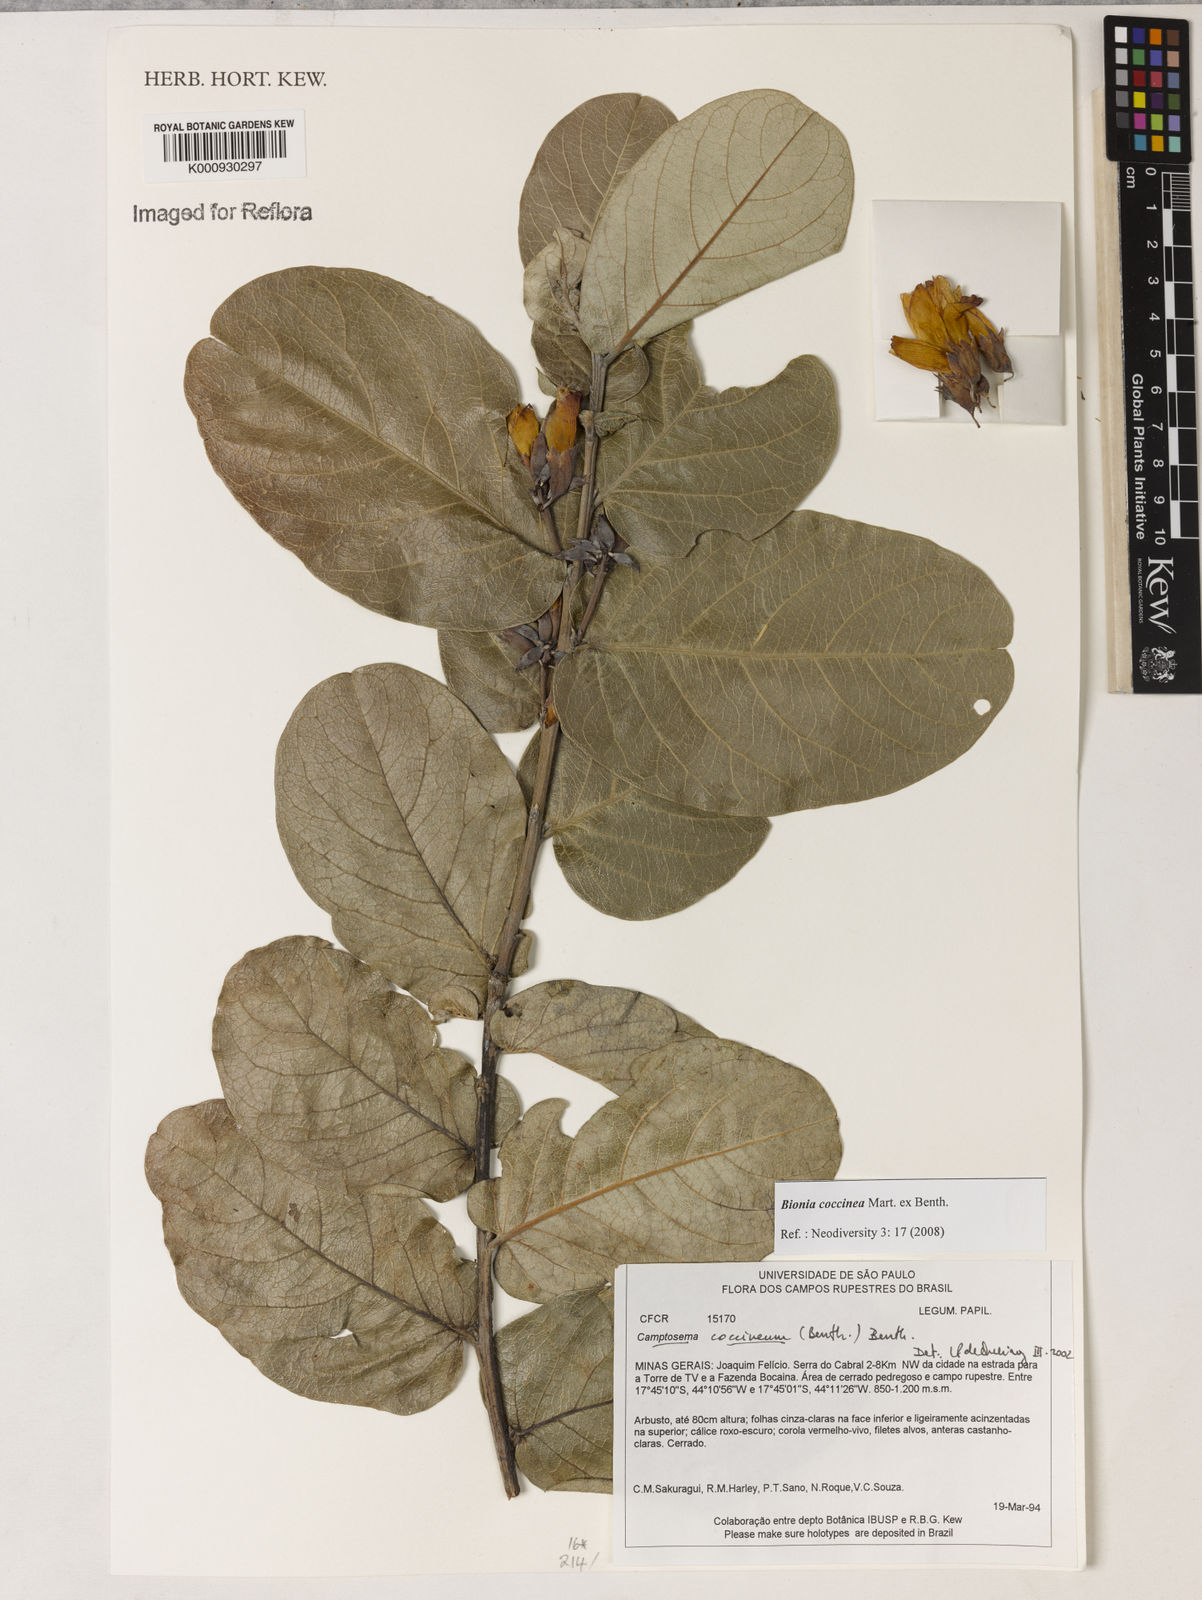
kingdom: Plantae
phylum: Tracheophyta
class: Magnoliopsida
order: Fabales
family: Fabaceae
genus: Camptosema
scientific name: Camptosema coccineum
